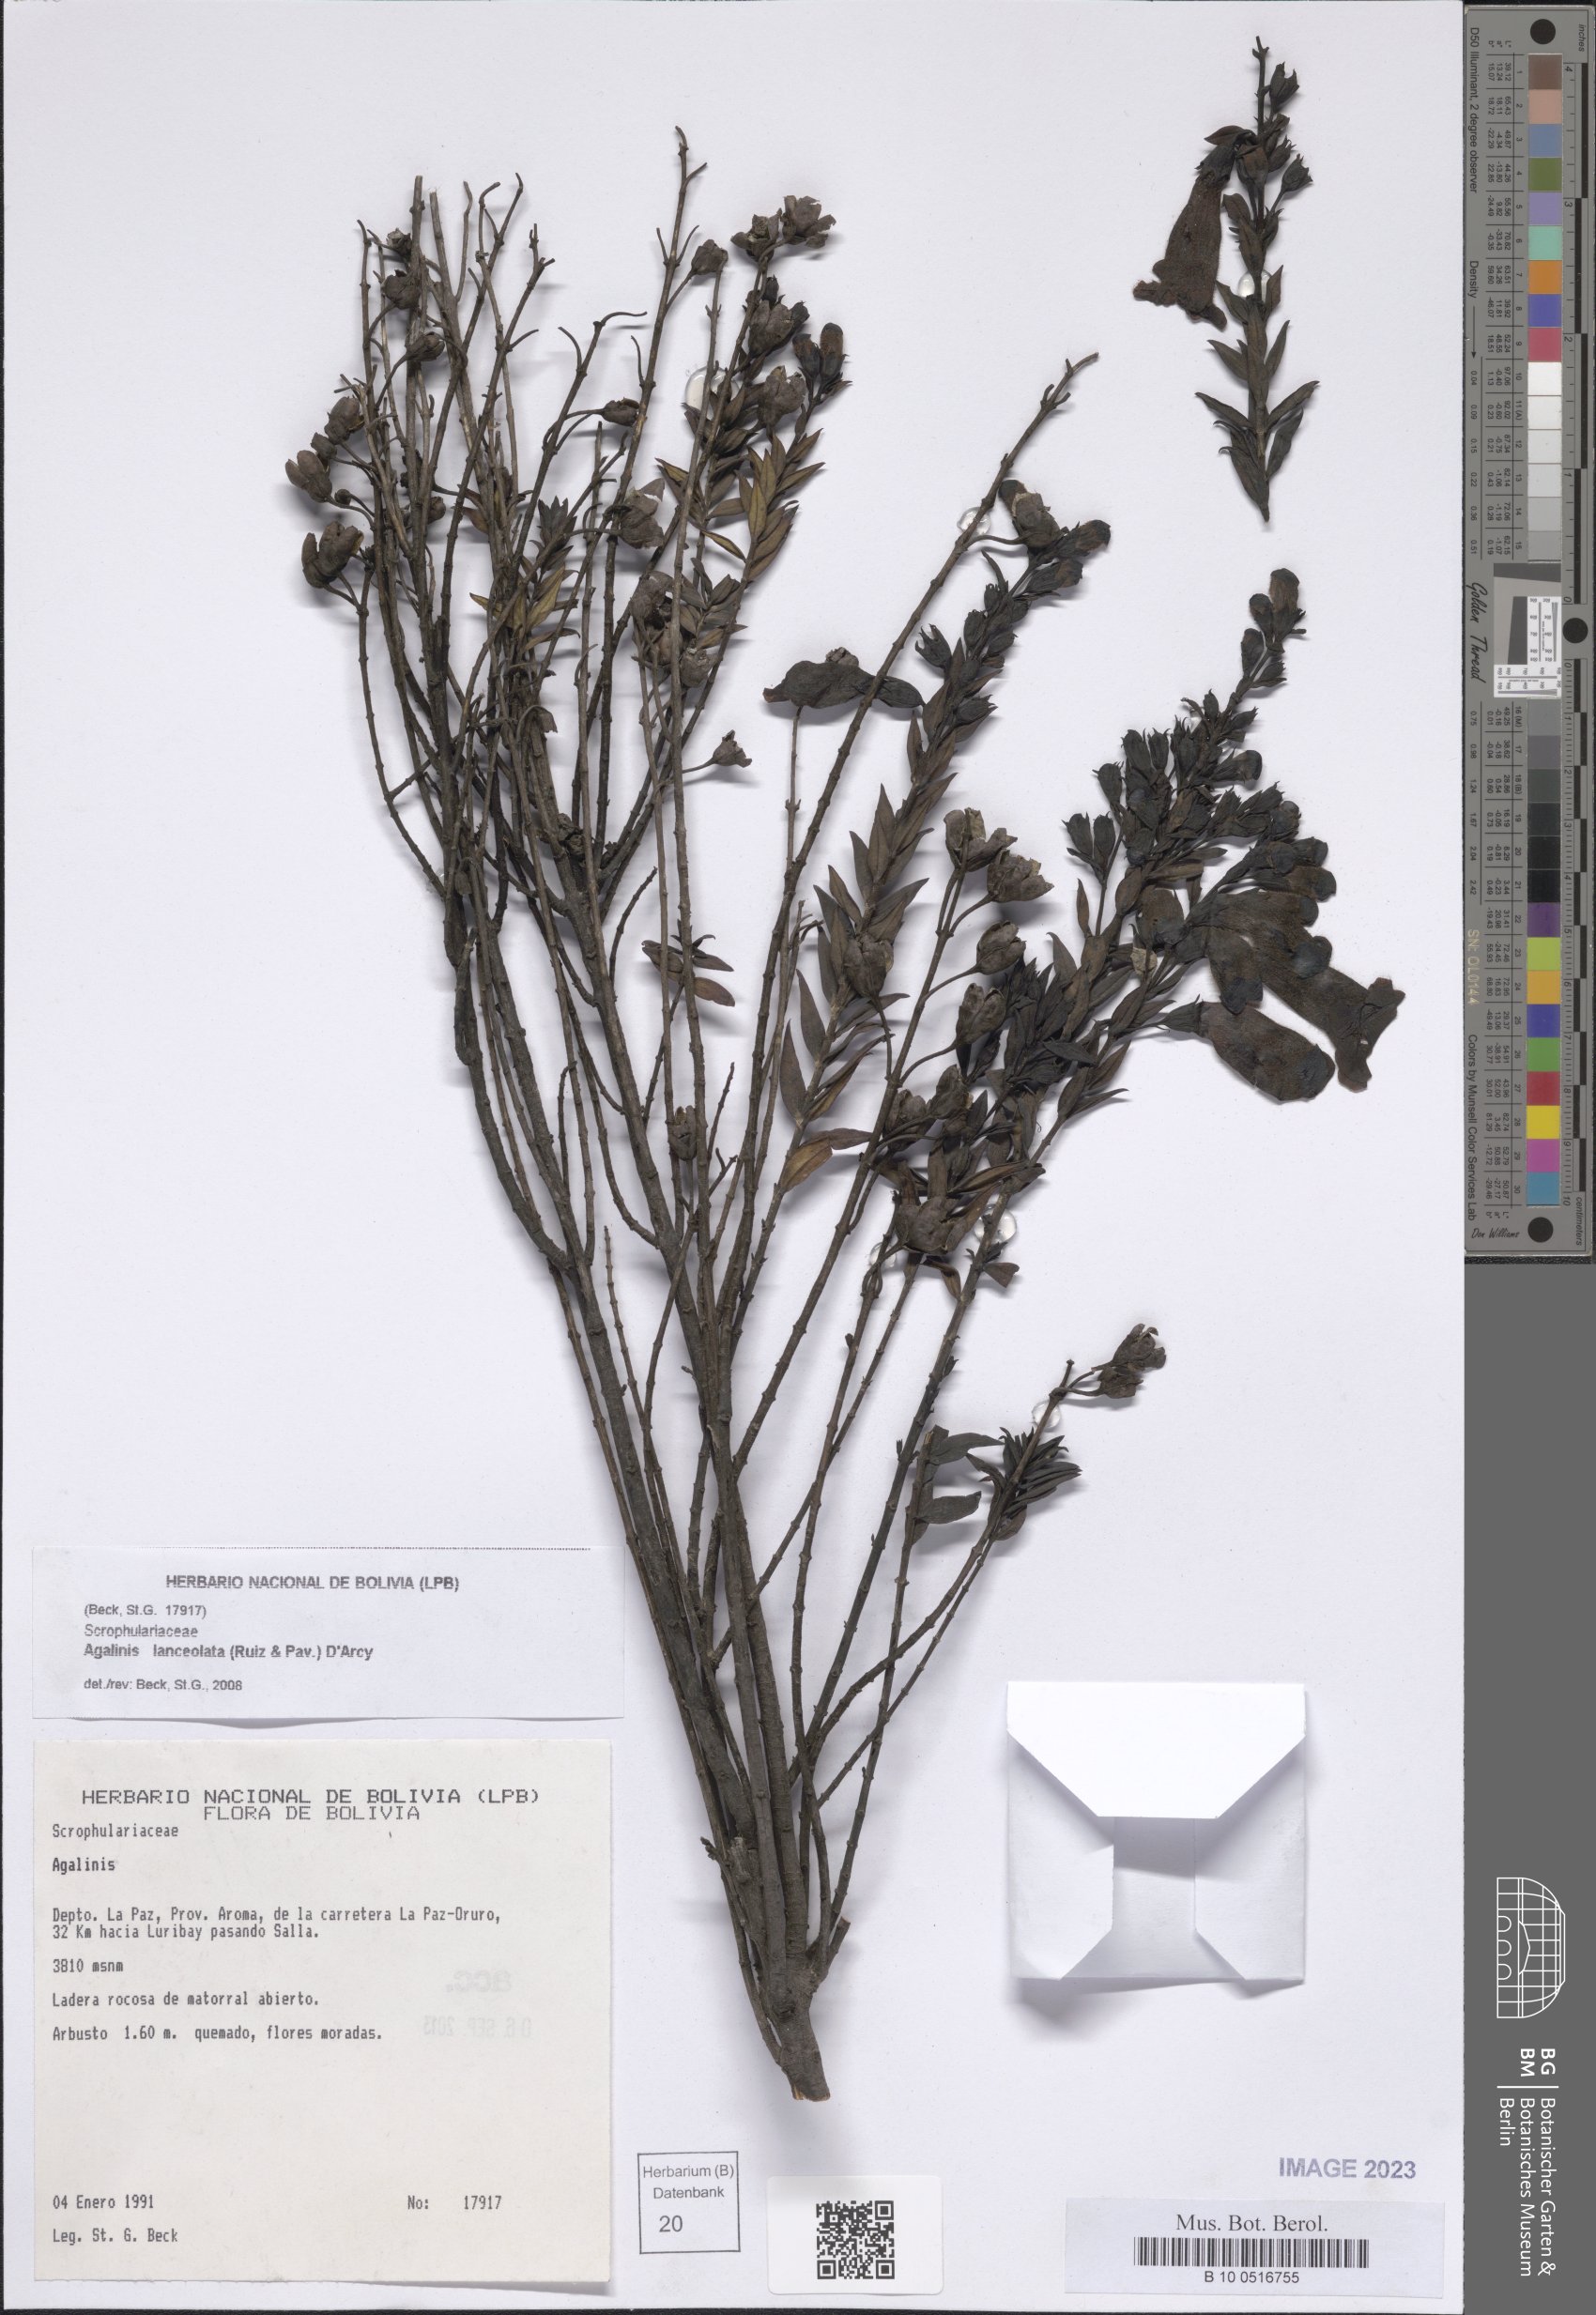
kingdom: Plantae
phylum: Tracheophyta
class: Magnoliopsida
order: Lamiales
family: Orobanchaceae
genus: Agalinis
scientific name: Agalinis lanceolata
